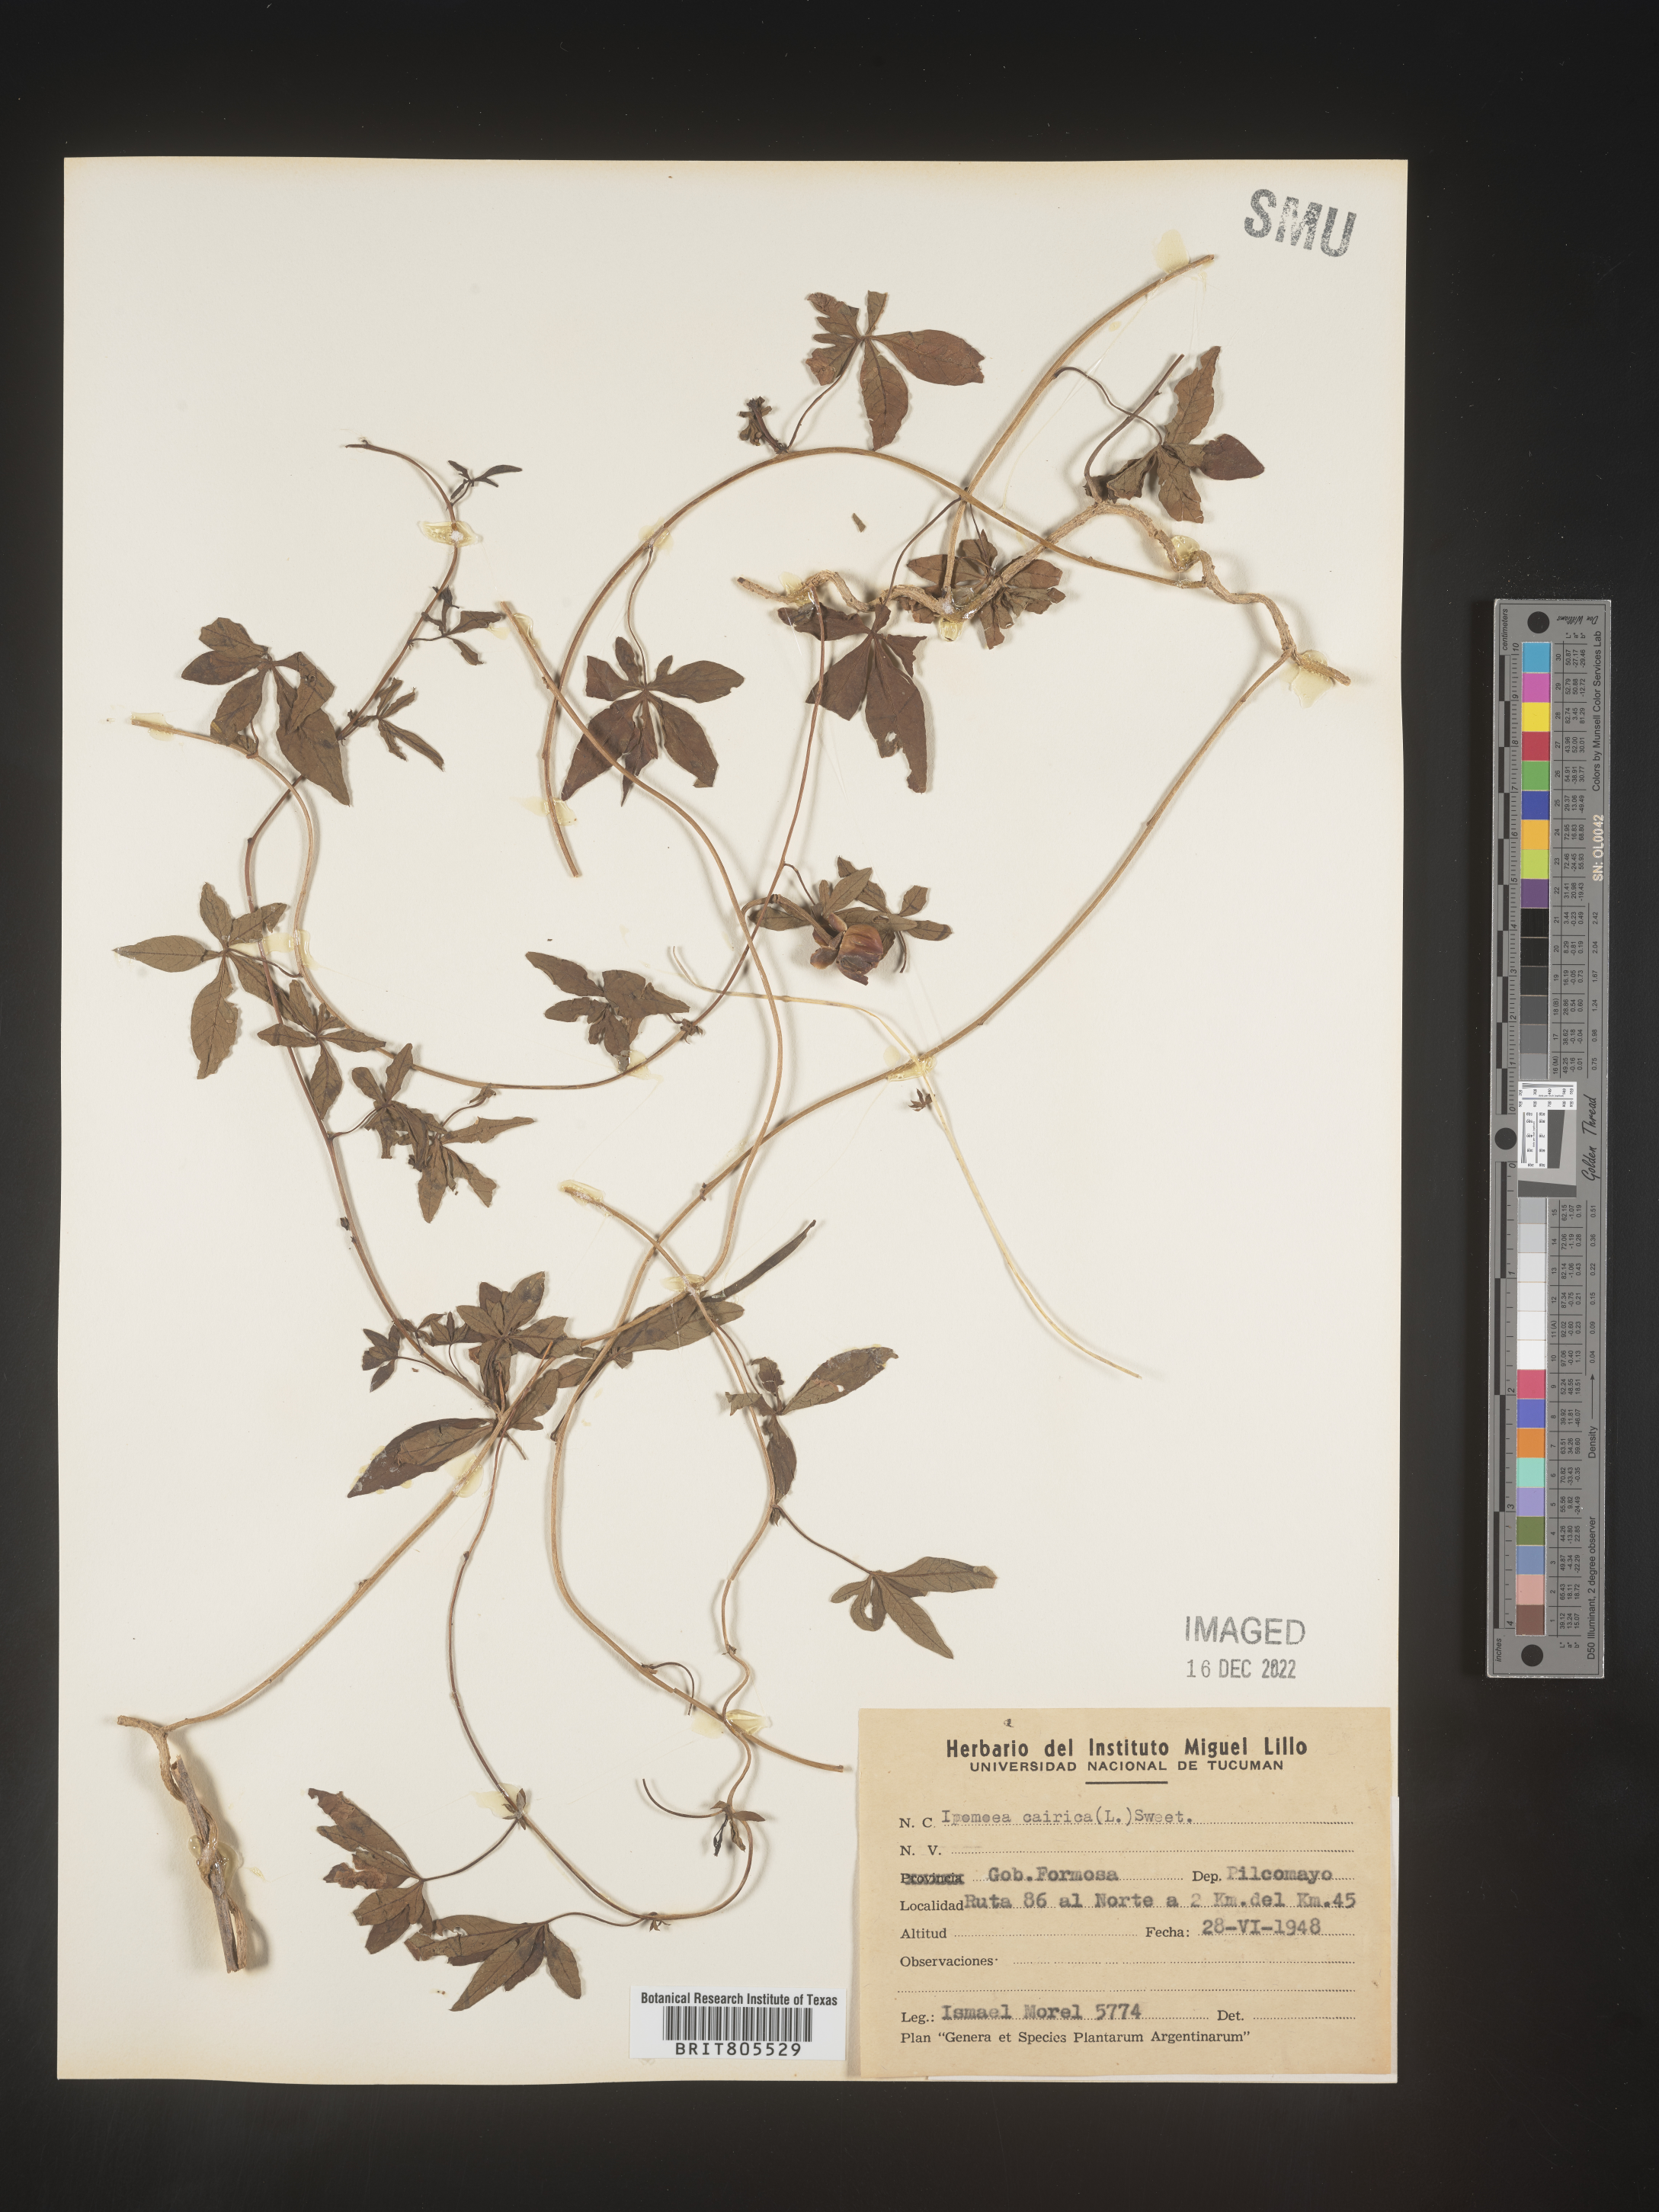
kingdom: Plantae
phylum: Tracheophyta
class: Magnoliopsida
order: Solanales
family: Convolvulaceae
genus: Ipomoea
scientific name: Ipomoea
